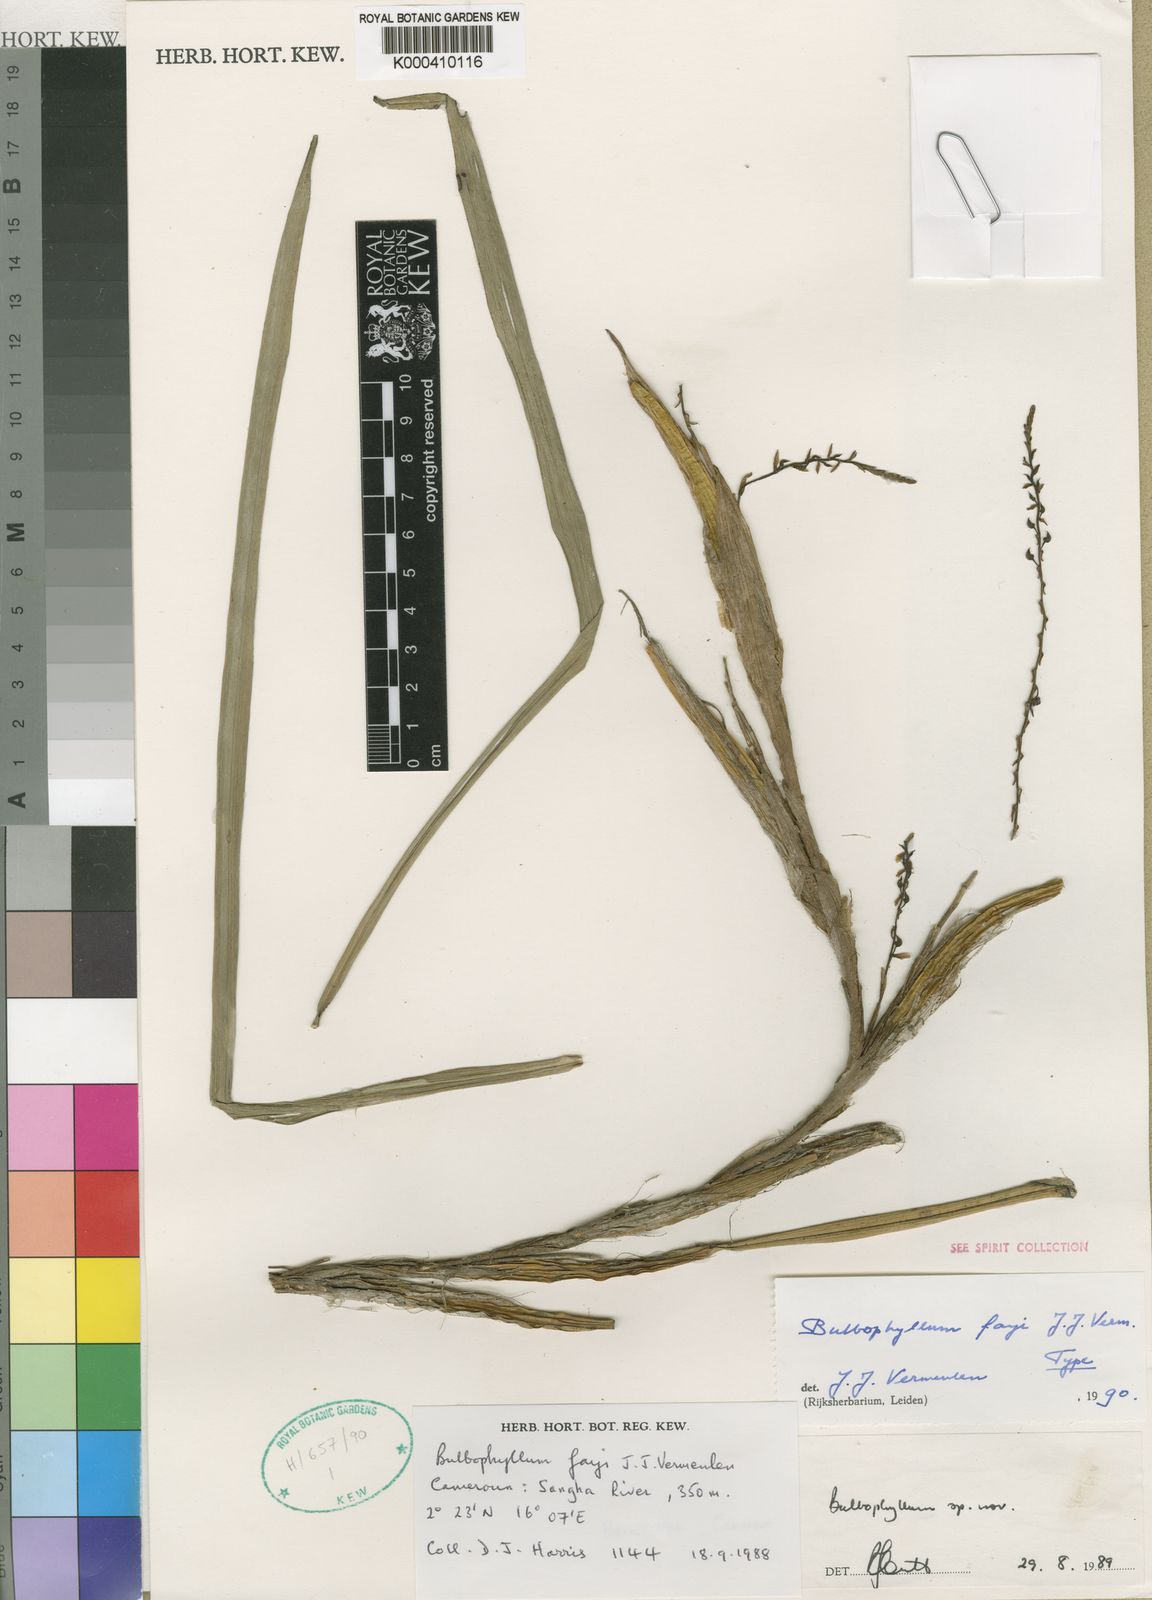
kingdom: Plantae
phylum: Tracheophyta
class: Liliopsida
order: Asparagales
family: Orchidaceae
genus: Bulbophyllum
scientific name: Bulbophyllum fayi
